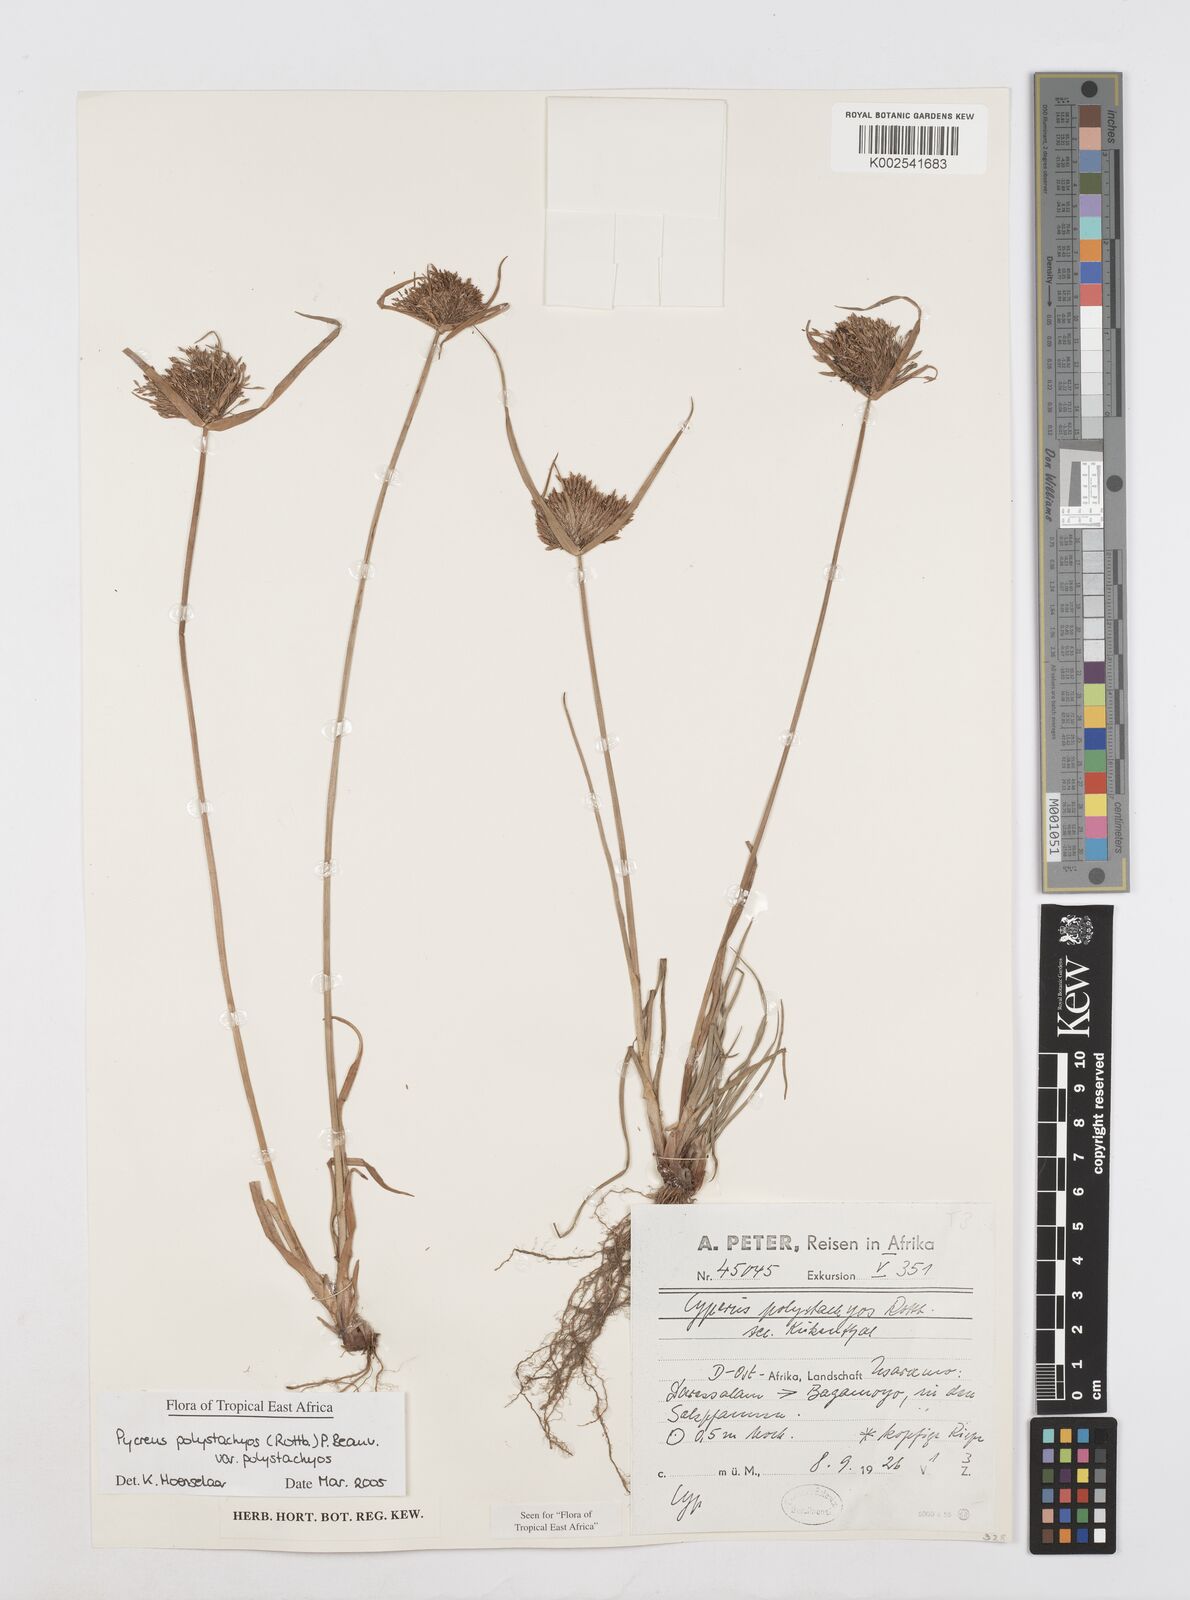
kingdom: Plantae
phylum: Tracheophyta
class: Liliopsida
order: Poales
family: Cyperaceae
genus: Cyperus
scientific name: Cyperus polystachyos
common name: Bunchy flat sedge
